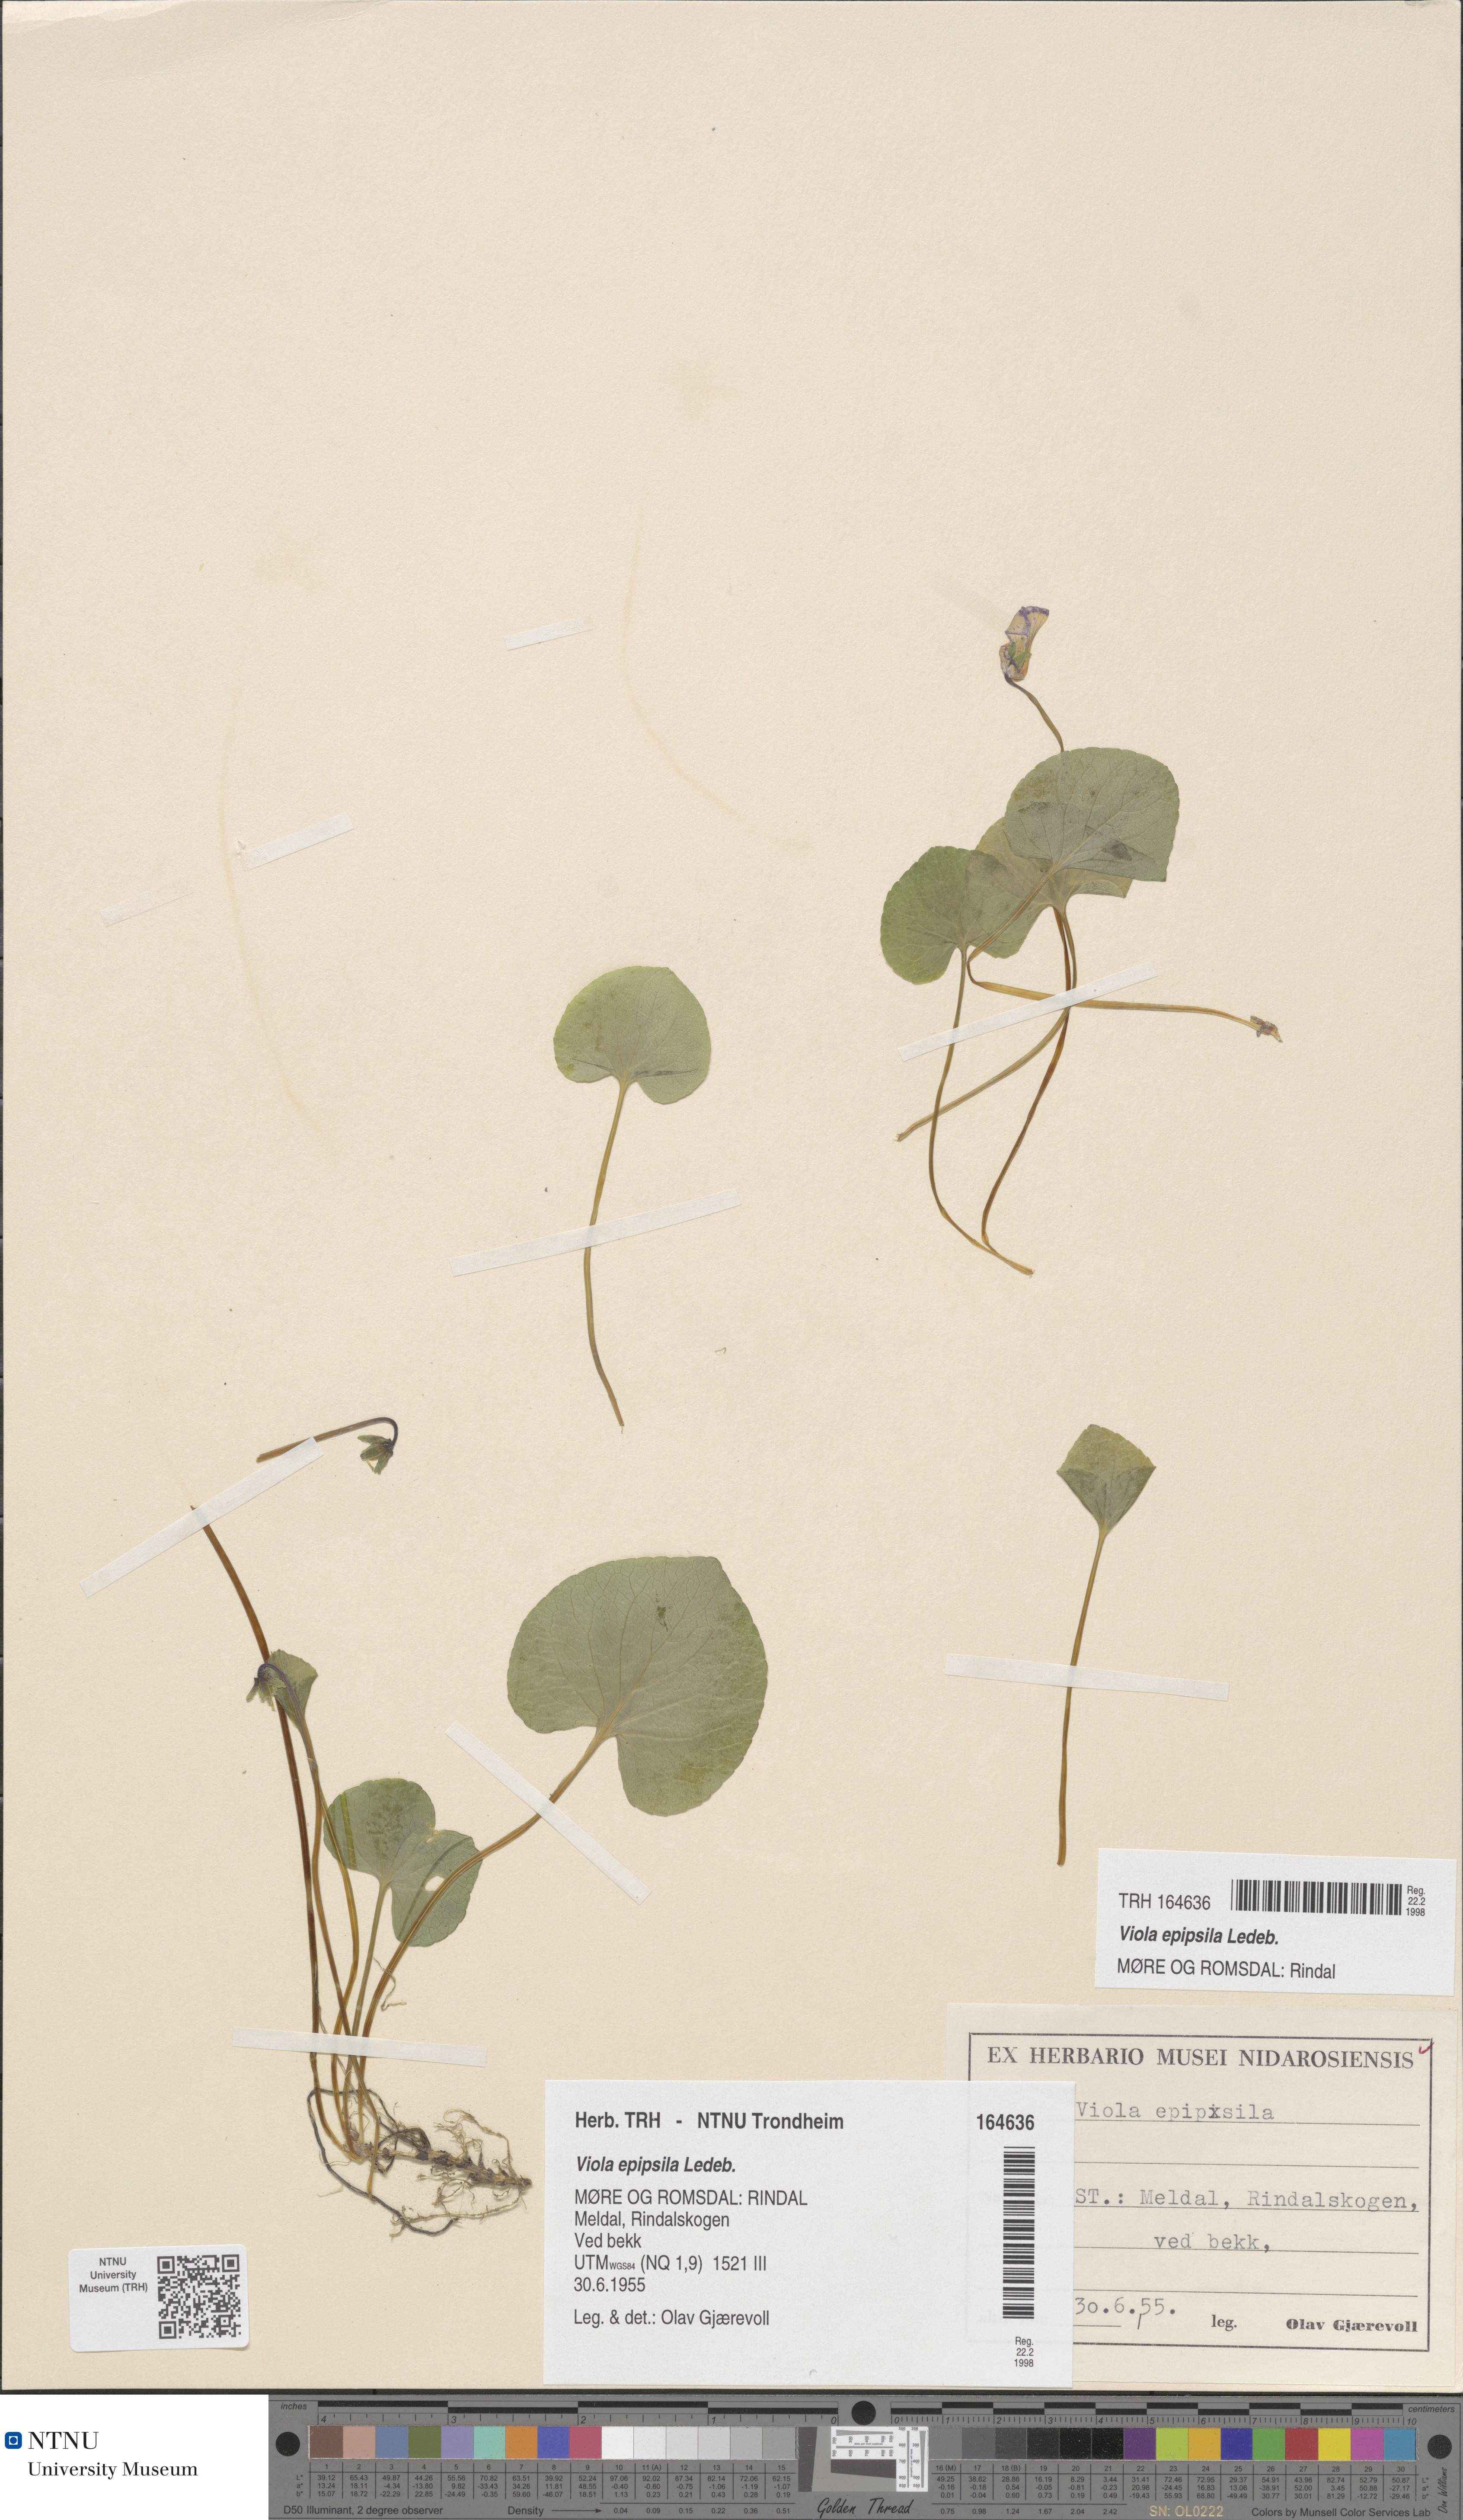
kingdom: Plantae
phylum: Tracheophyta
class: Magnoliopsida
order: Malpighiales
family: Violaceae
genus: Viola
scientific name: Viola epipsila
